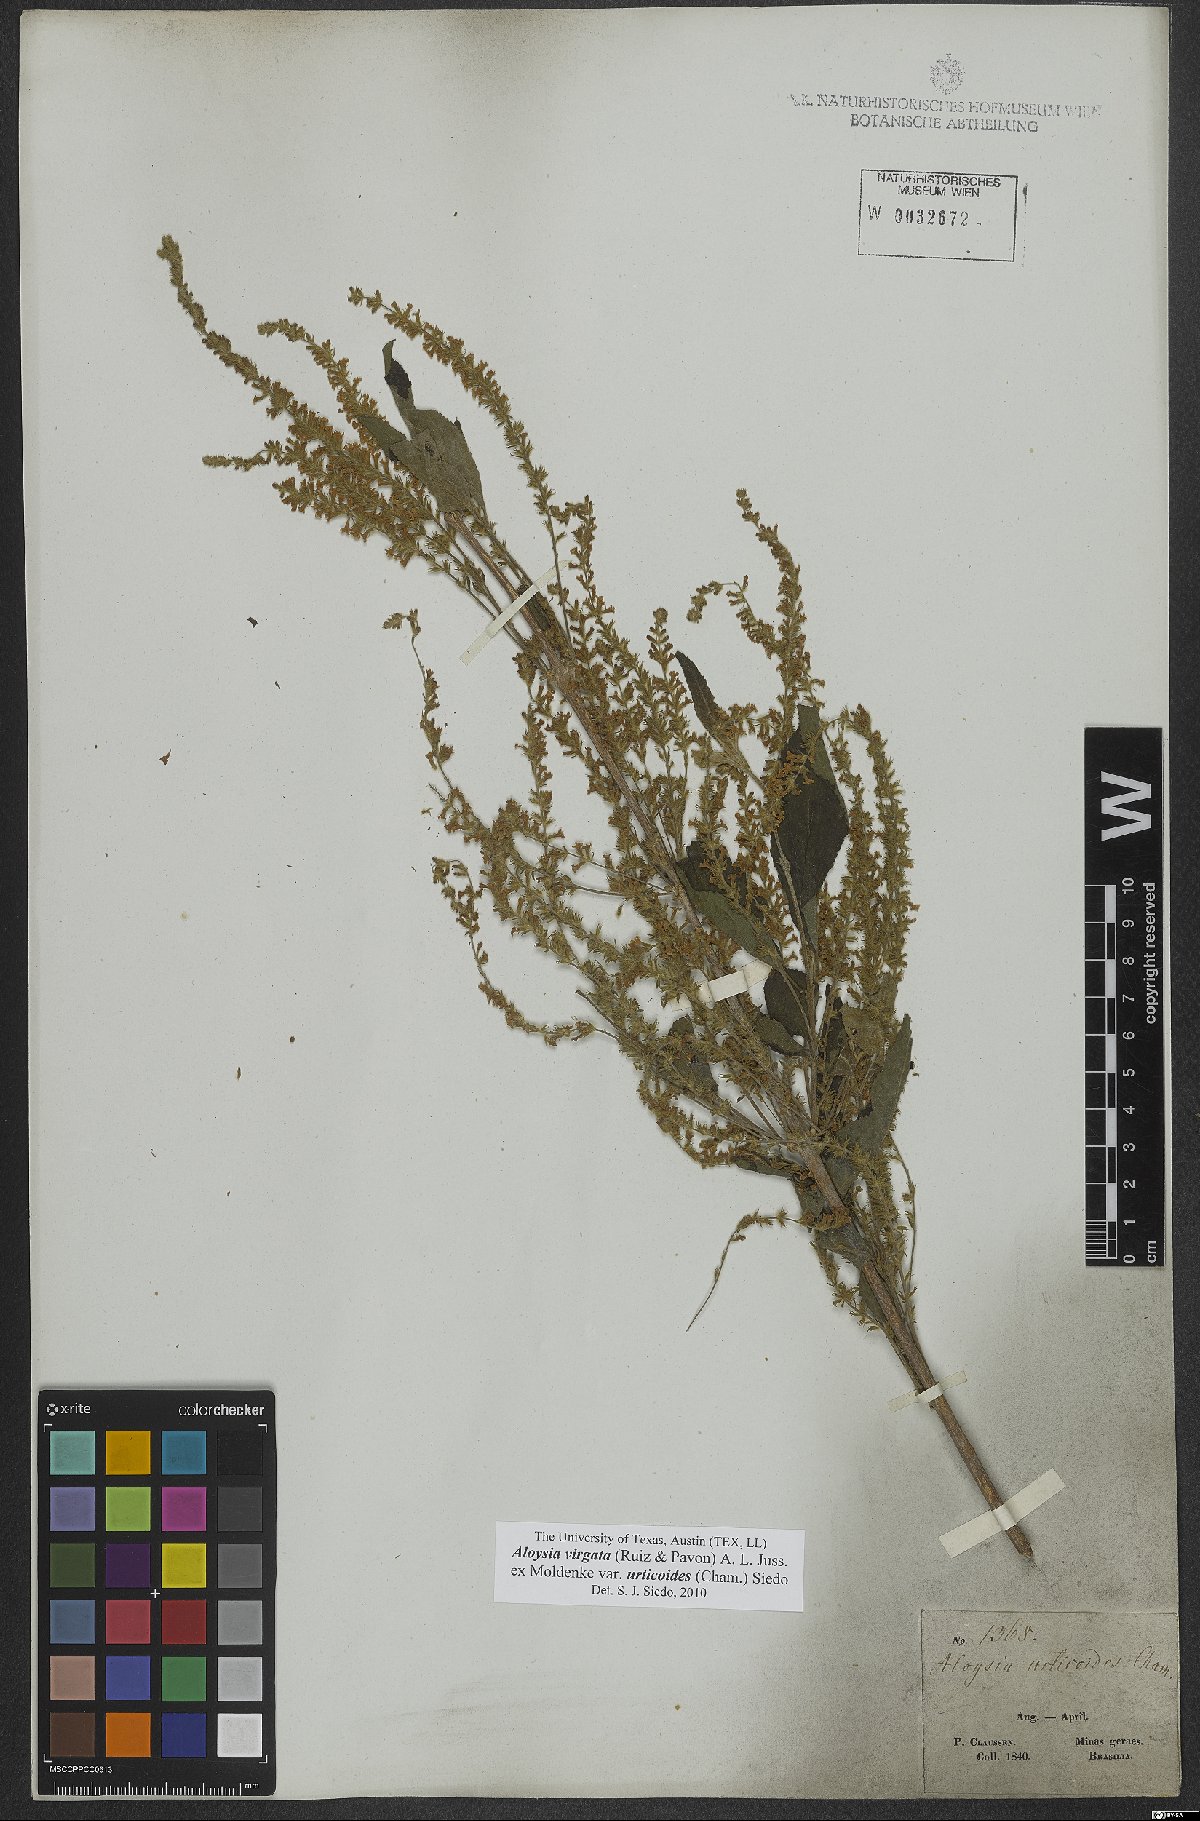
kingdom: Plantae
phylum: Tracheophyta
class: Magnoliopsida
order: Lamiales
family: Verbenaceae
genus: Aloysia
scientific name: Aloysia virgata
